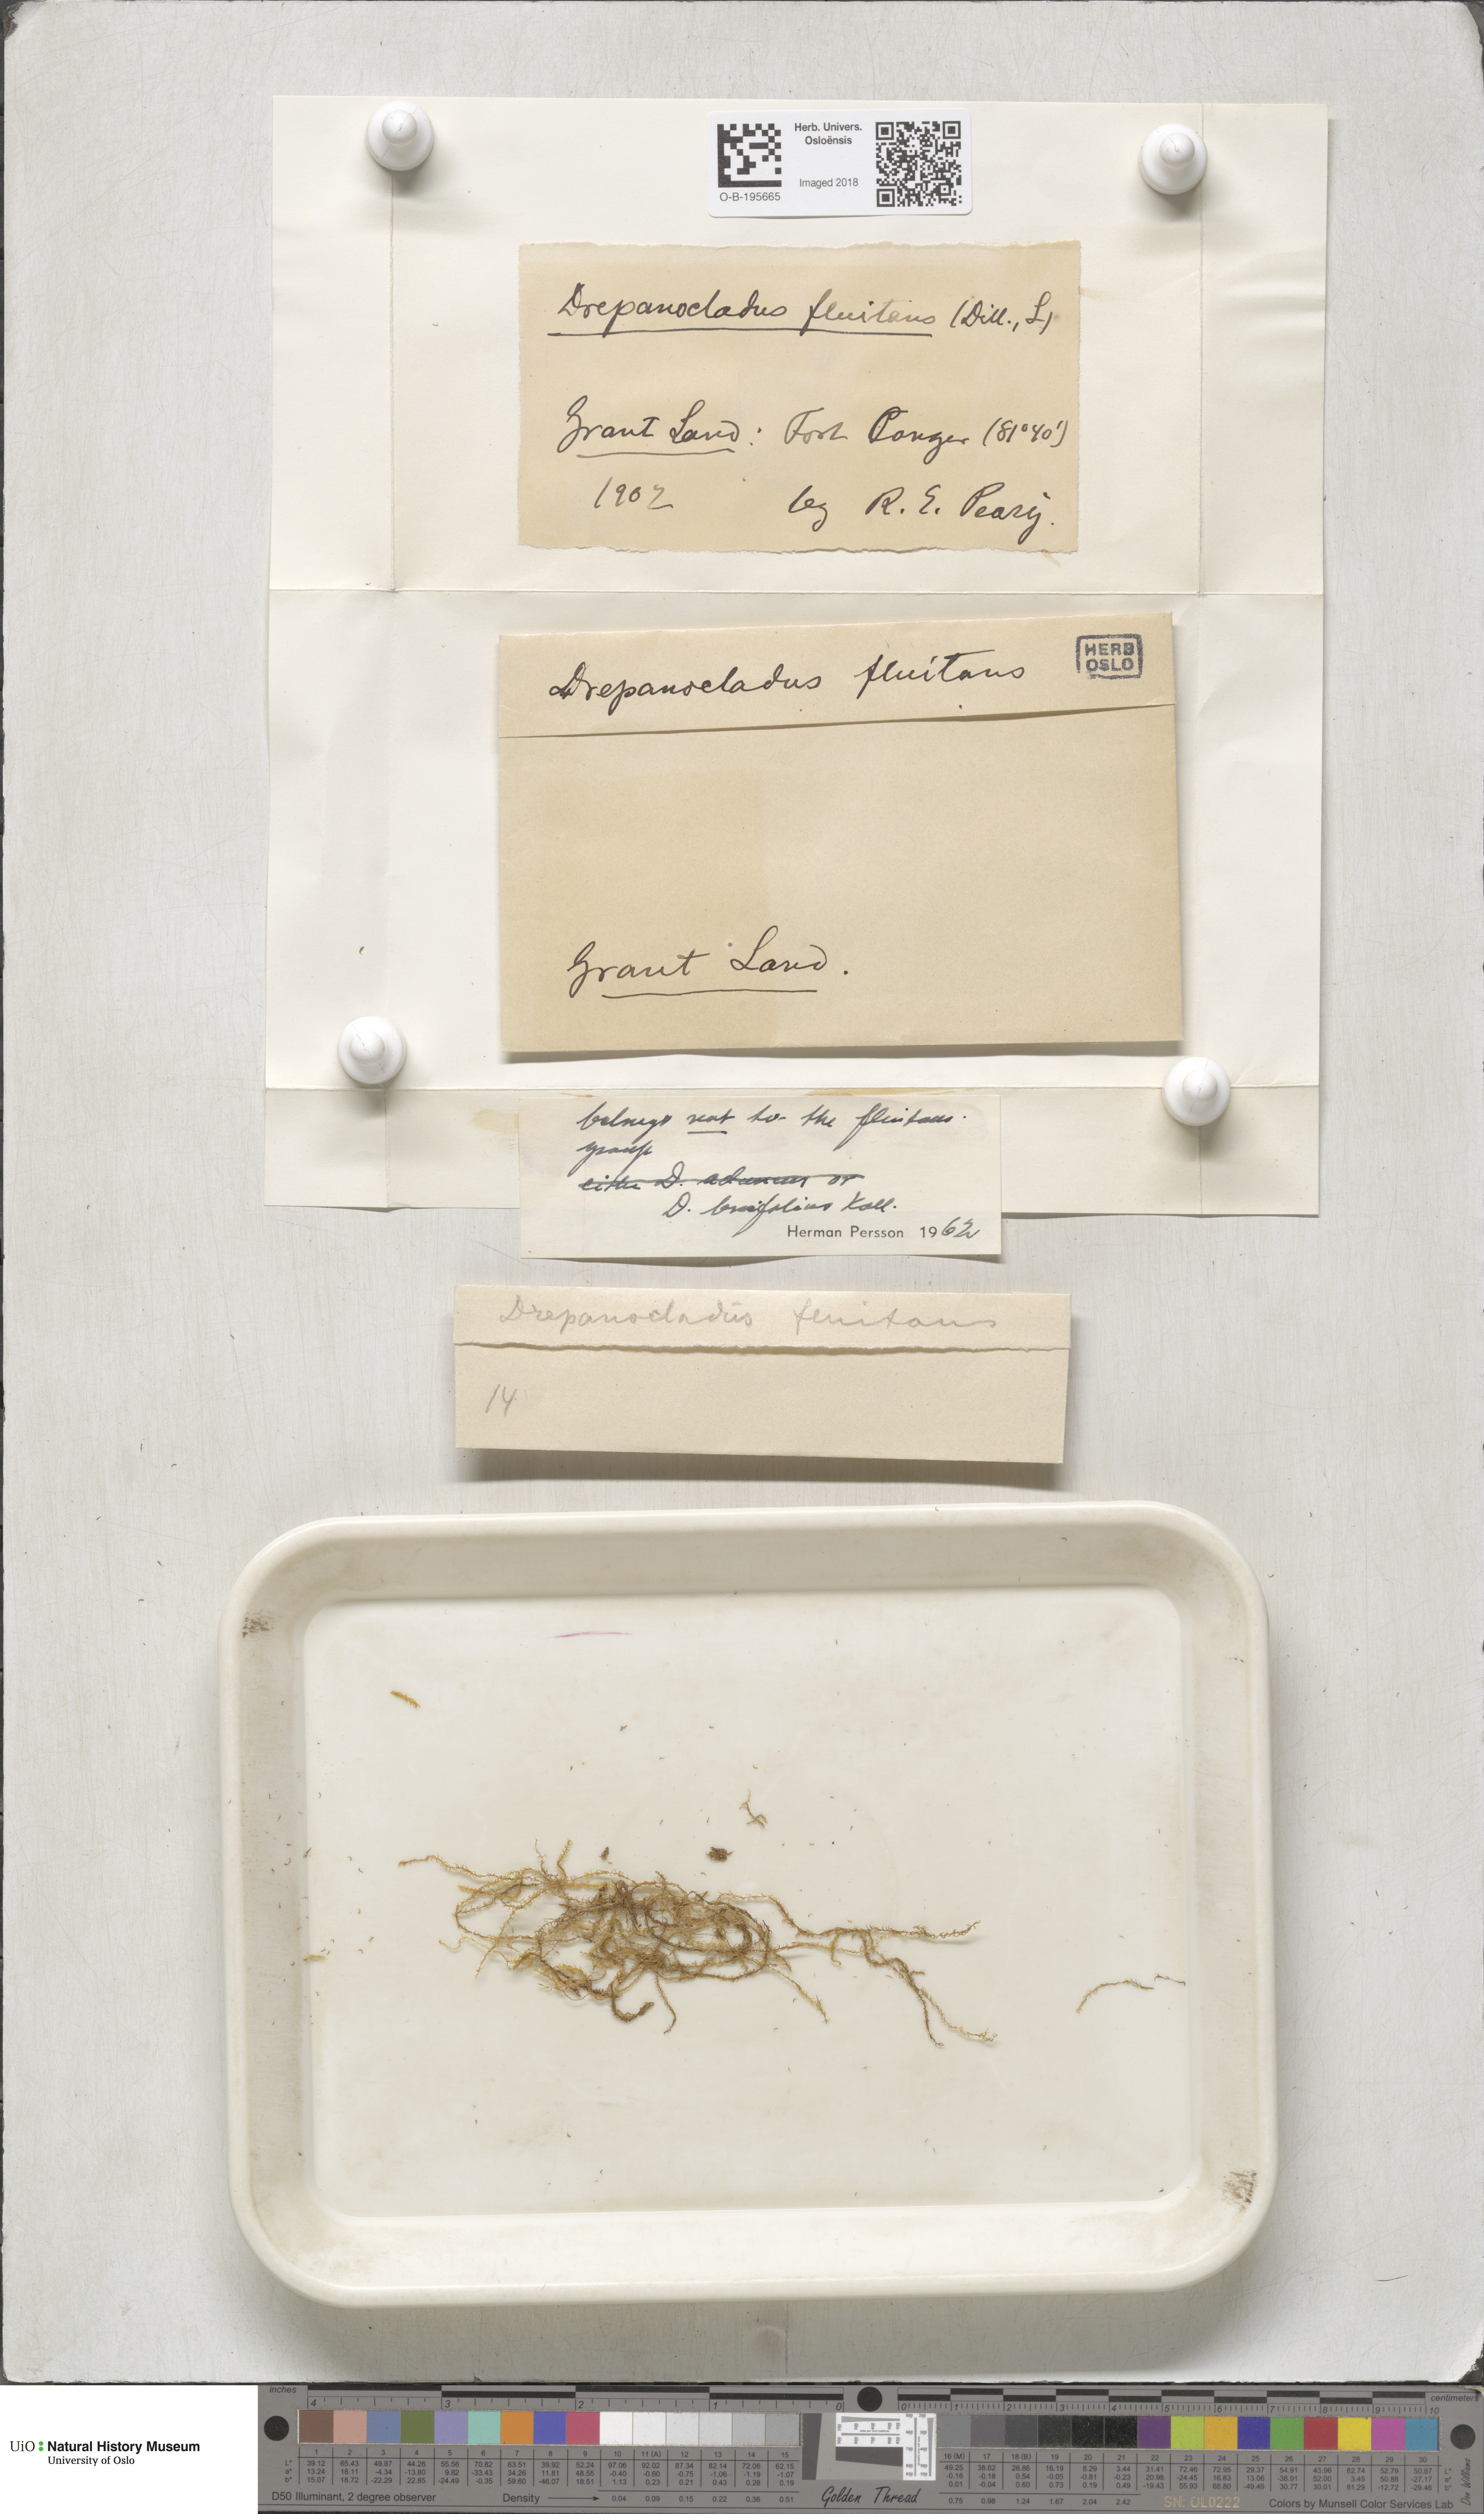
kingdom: Plantae
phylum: Bryophyta
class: Bryopsida
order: Hypnales
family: Calliergonaceae
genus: Warnstorfia
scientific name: Warnstorfia fluitans
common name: Floating hook moss
